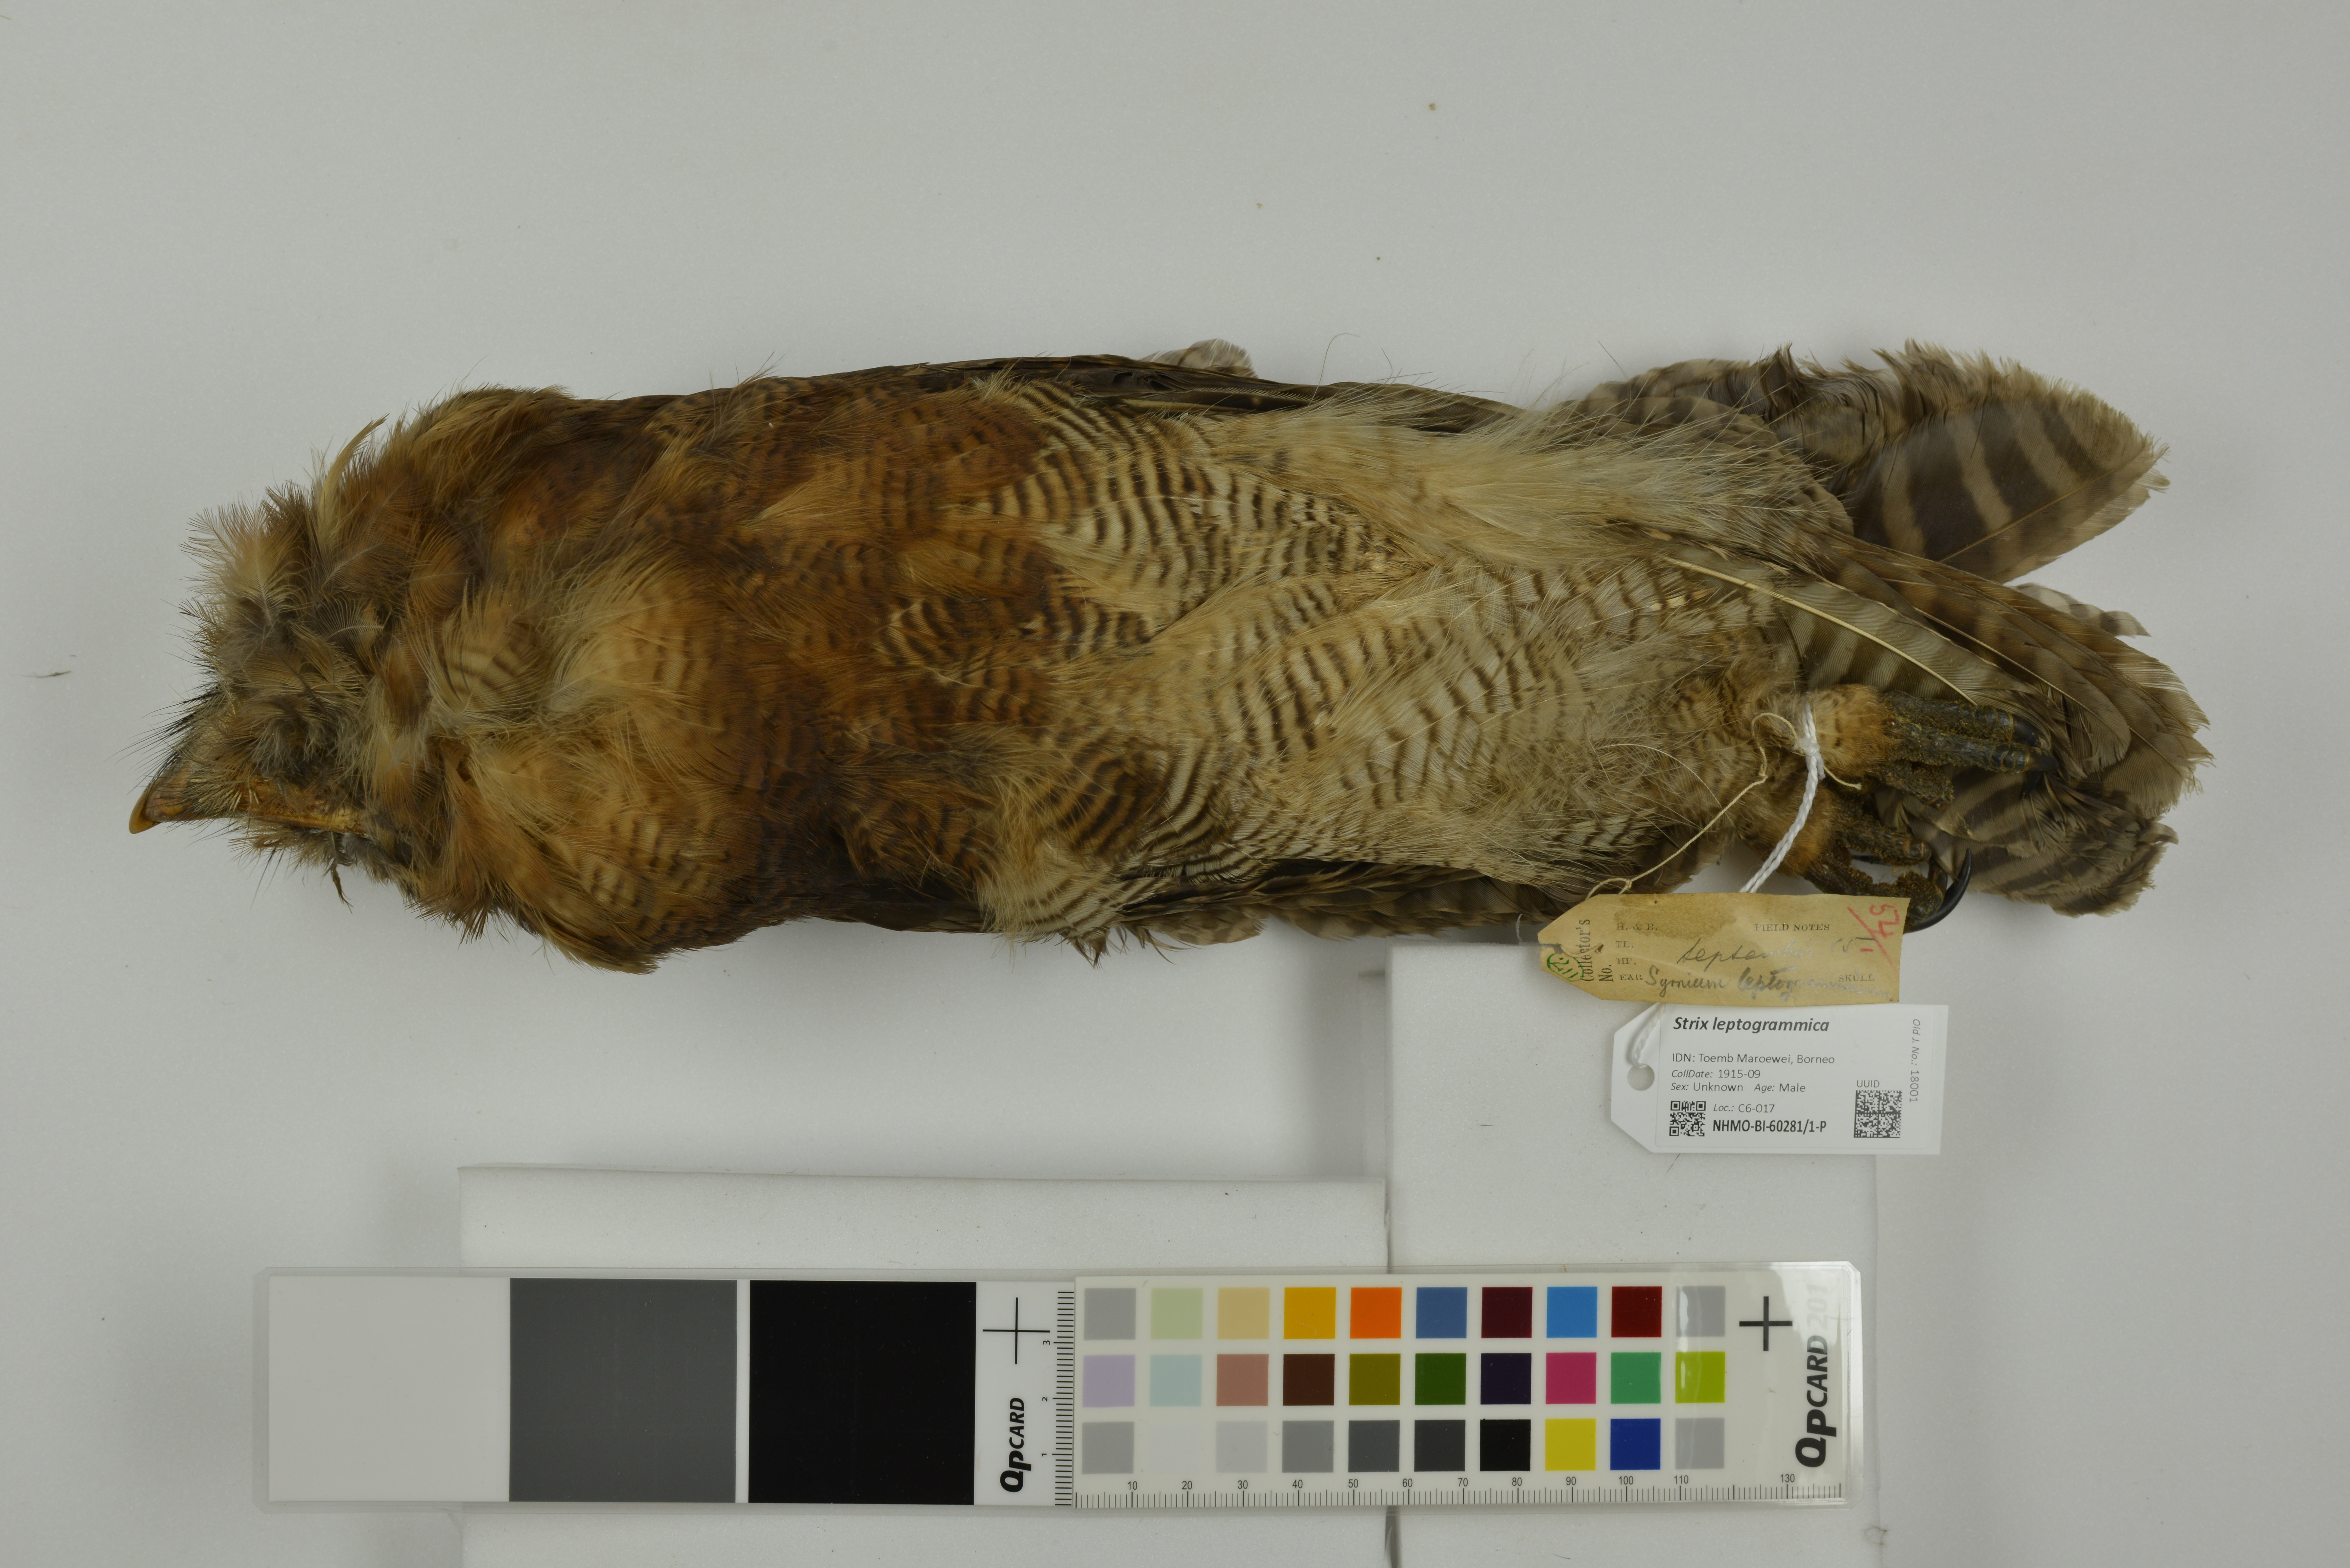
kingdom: Animalia
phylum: Chordata
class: Aves
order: Strigiformes
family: Strigidae
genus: Strix
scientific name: Strix leptogrammica
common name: Brown wood owl
